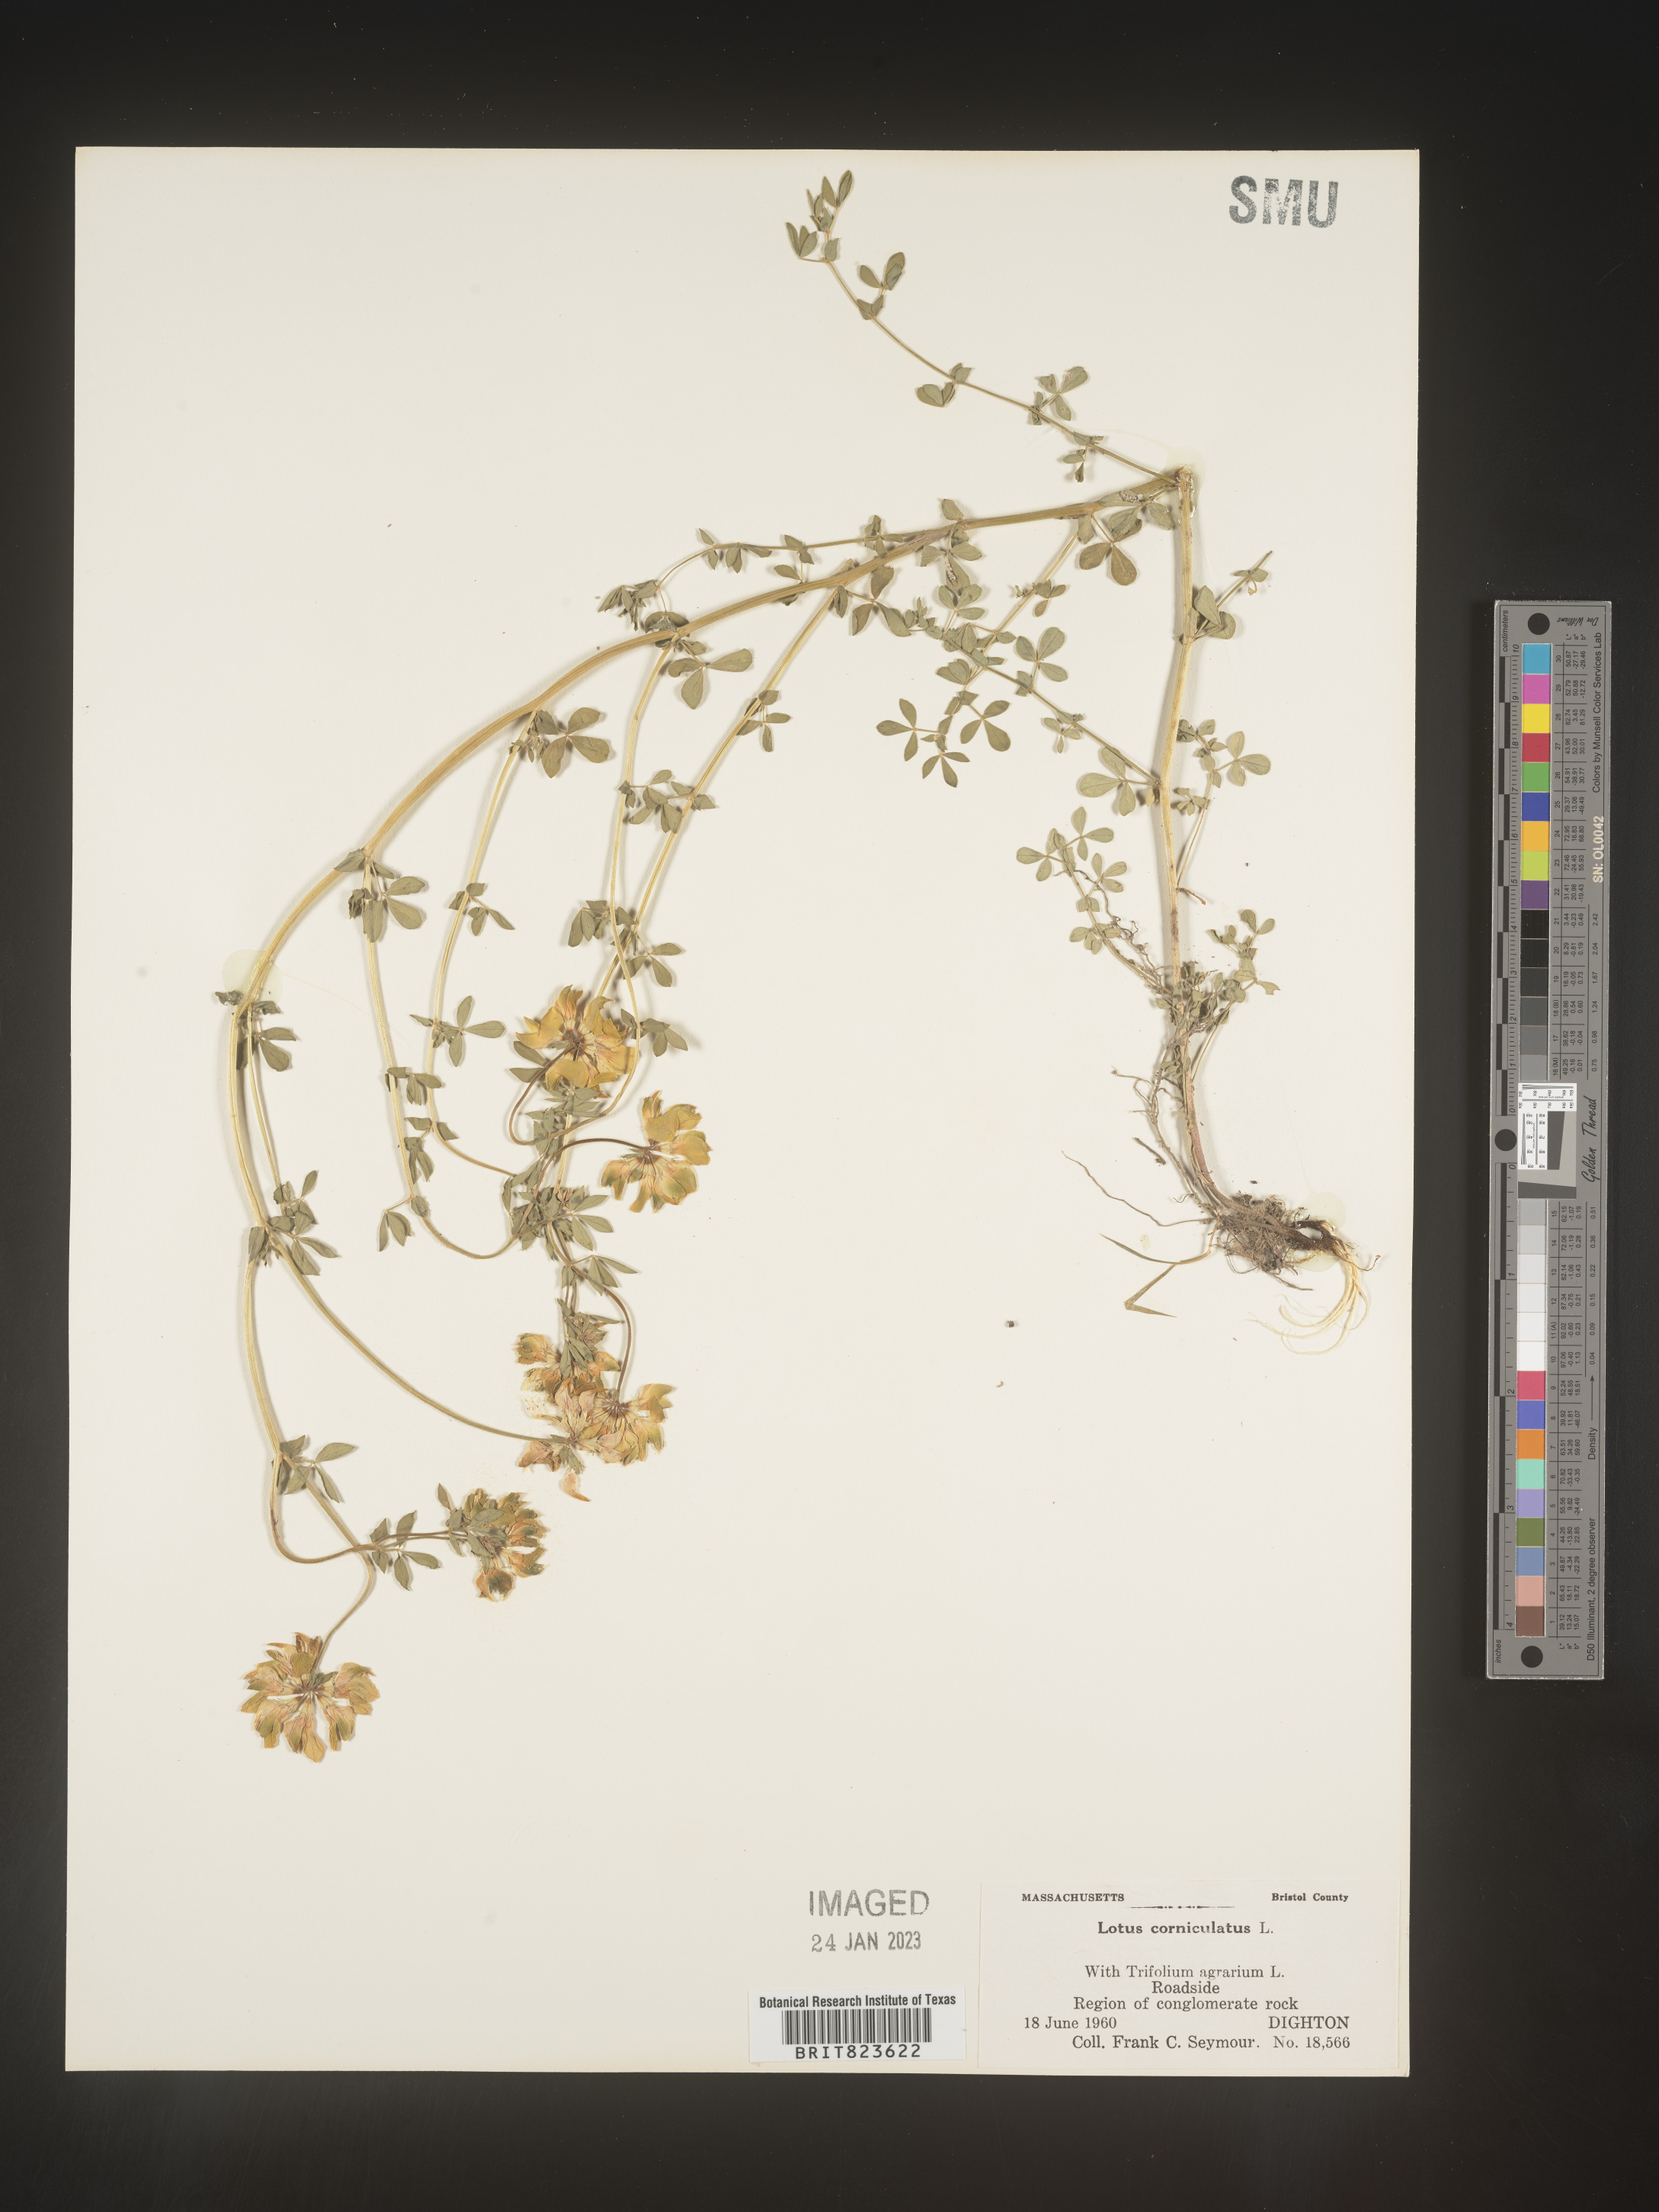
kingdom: Plantae
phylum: Tracheophyta
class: Magnoliopsida
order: Fabales
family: Fabaceae
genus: Lotus
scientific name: Lotus corniculatus
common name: Common bird's-foot-trefoil
